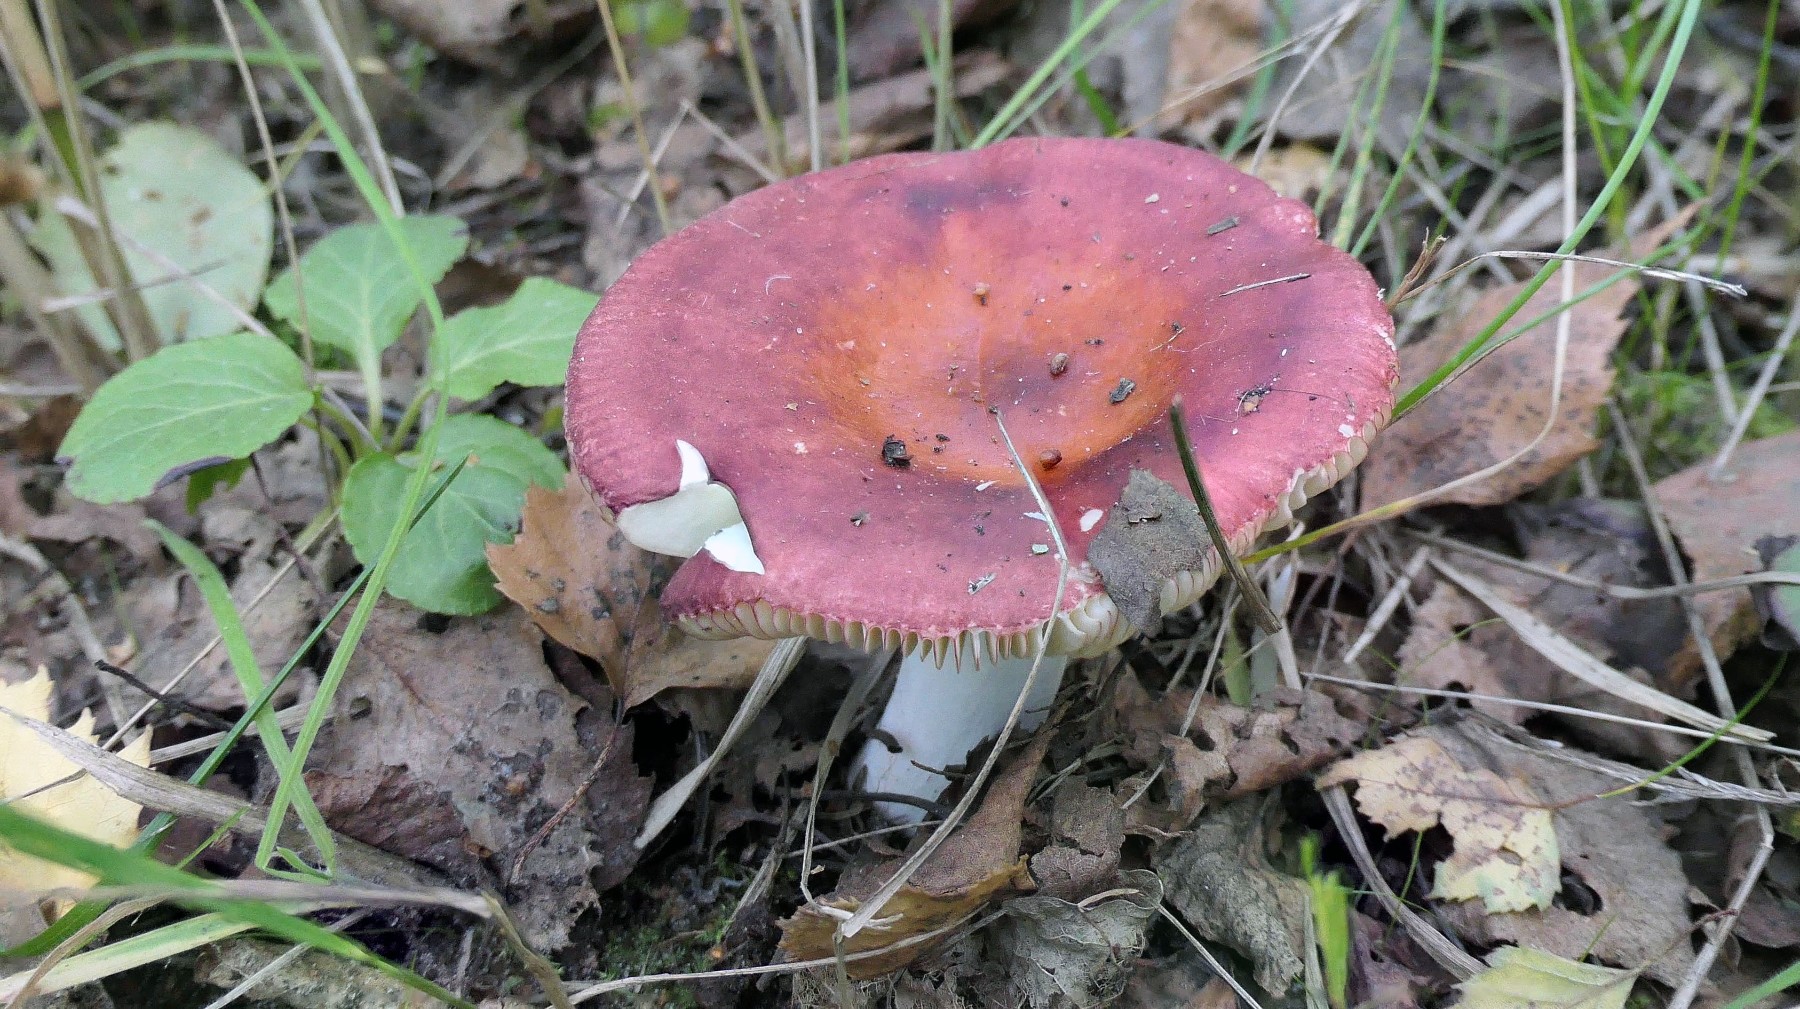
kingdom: Fungi
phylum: Basidiomycota
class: Agaricomycetes
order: Russulales
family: Russulaceae
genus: Russula
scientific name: Russula velenovskyi
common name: orangerød skørhat
